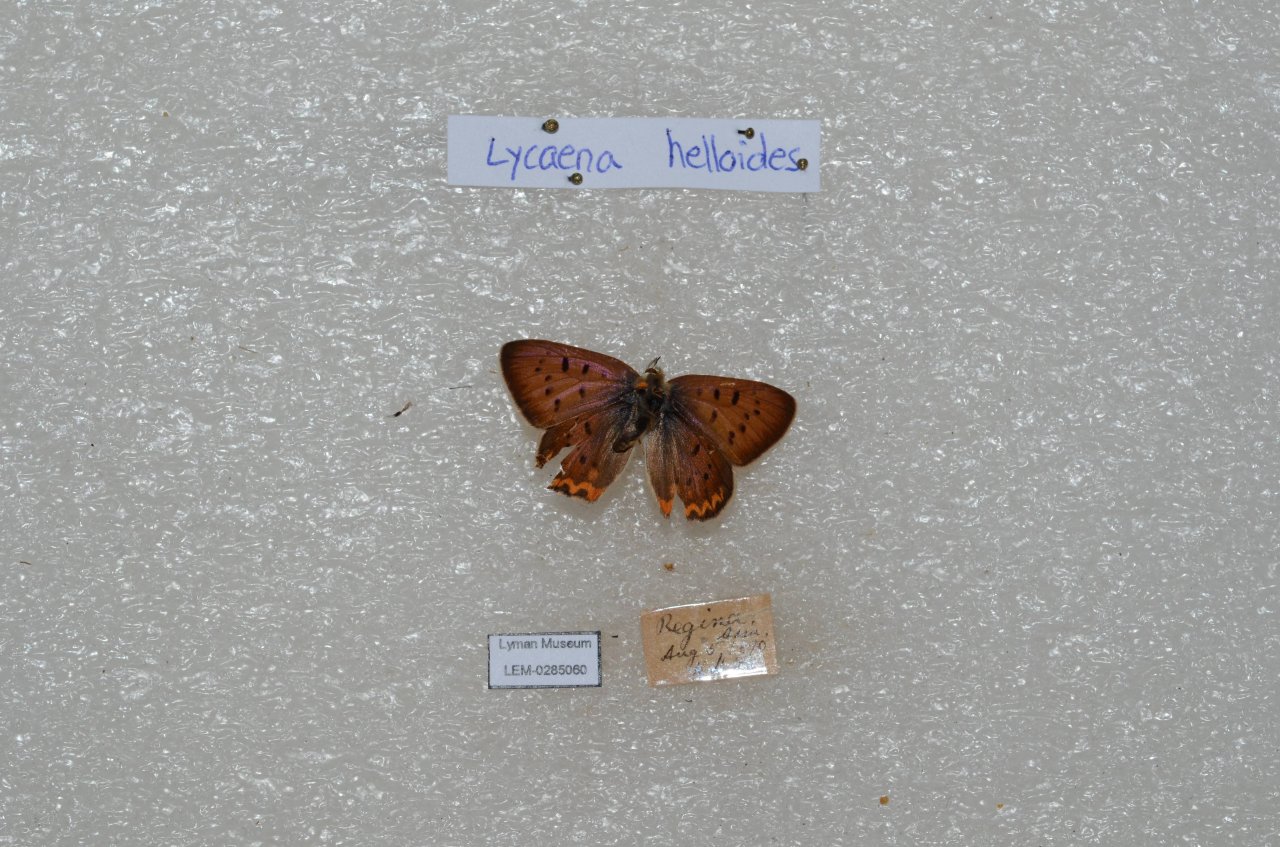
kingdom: Animalia
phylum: Arthropoda
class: Insecta
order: Lepidoptera
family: Sesiidae
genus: Sesia
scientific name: Sesia Lycaena helloides
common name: Purplish Copper
